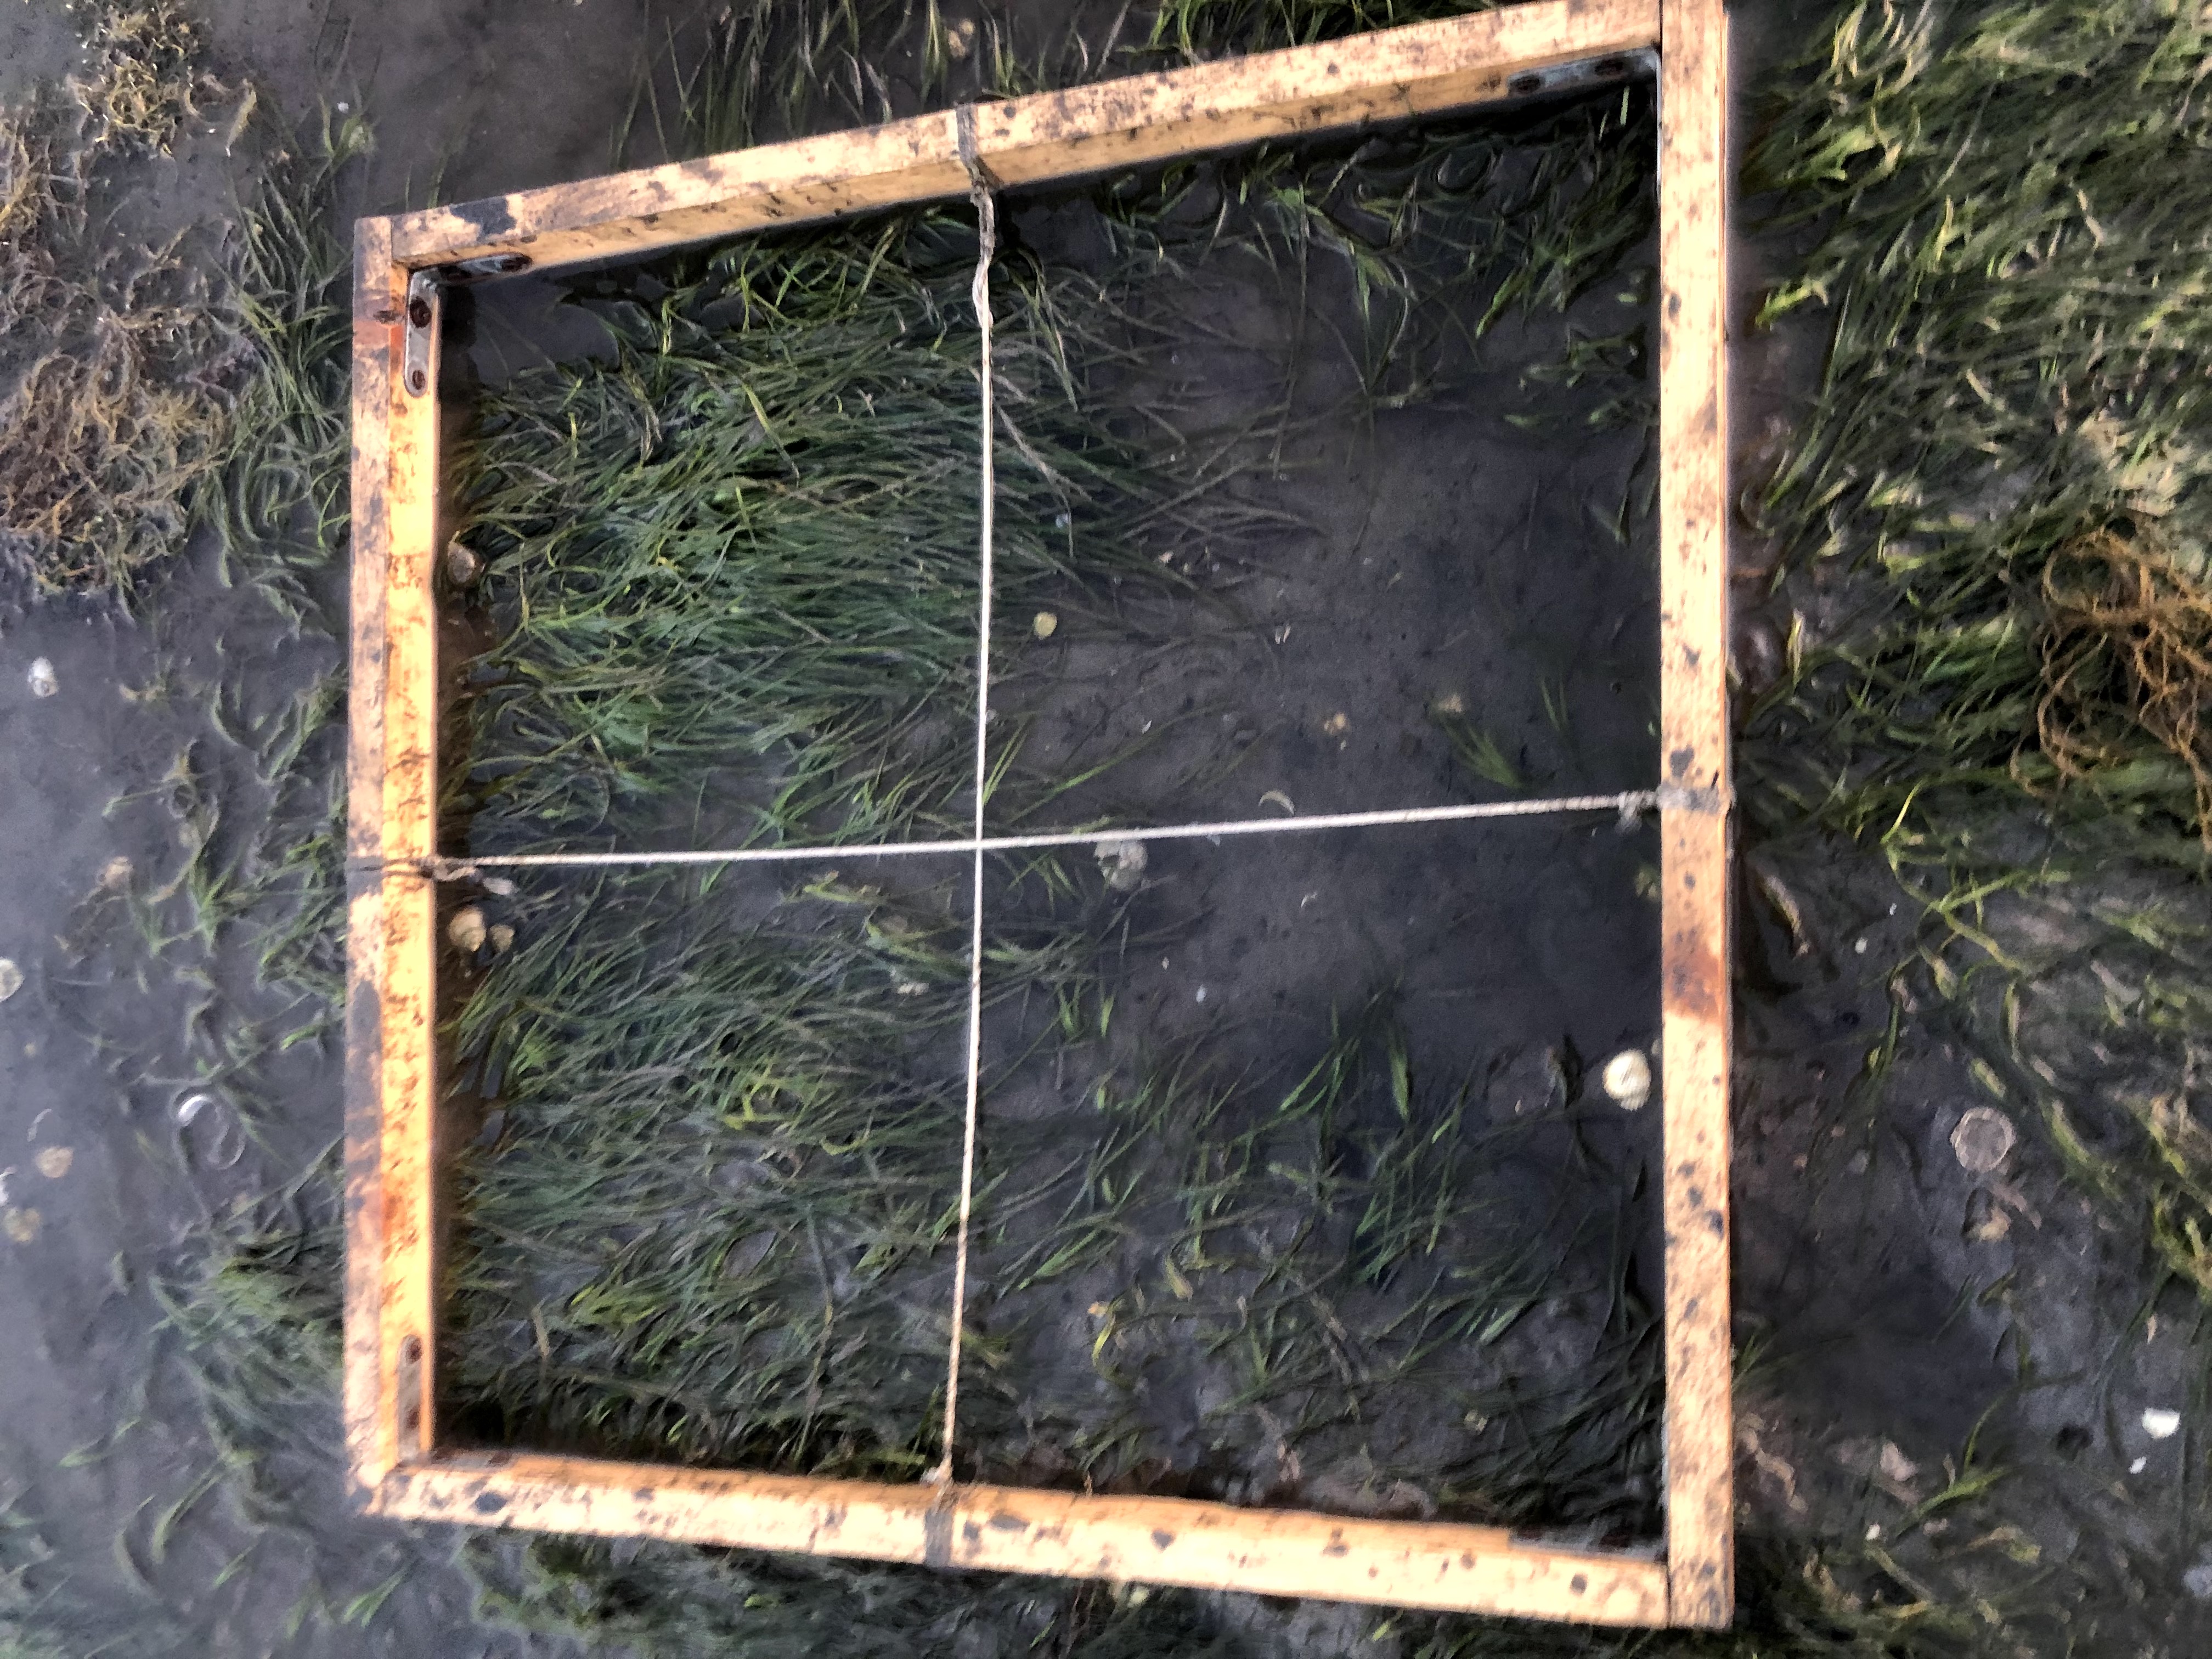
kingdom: Plantae
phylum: Tracheophyta
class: Liliopsida
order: Alismatales
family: Zosteraceae
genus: Zostera
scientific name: Zostera noltii
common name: Dwarf eelgrass
